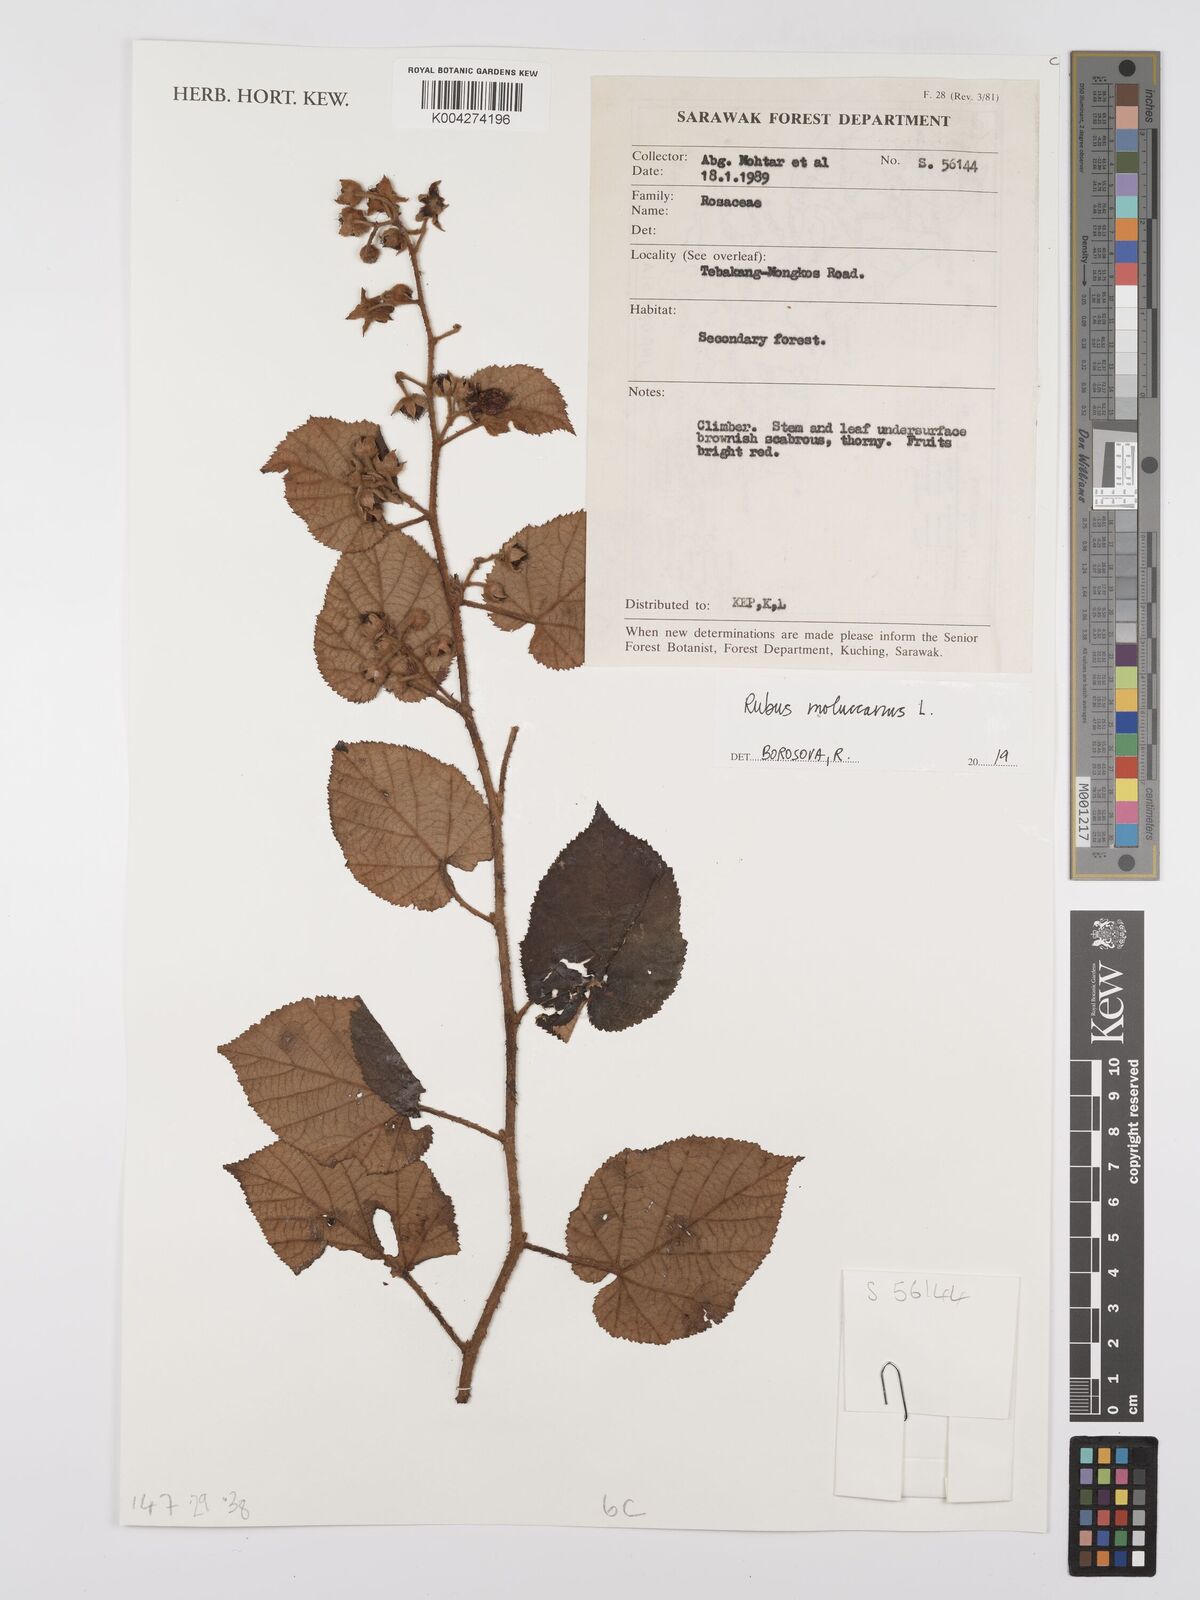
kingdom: Plantae
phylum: Tracheophyta
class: Magnoliopsida
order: Rosales
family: Rosaceae
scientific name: Rosaceae
